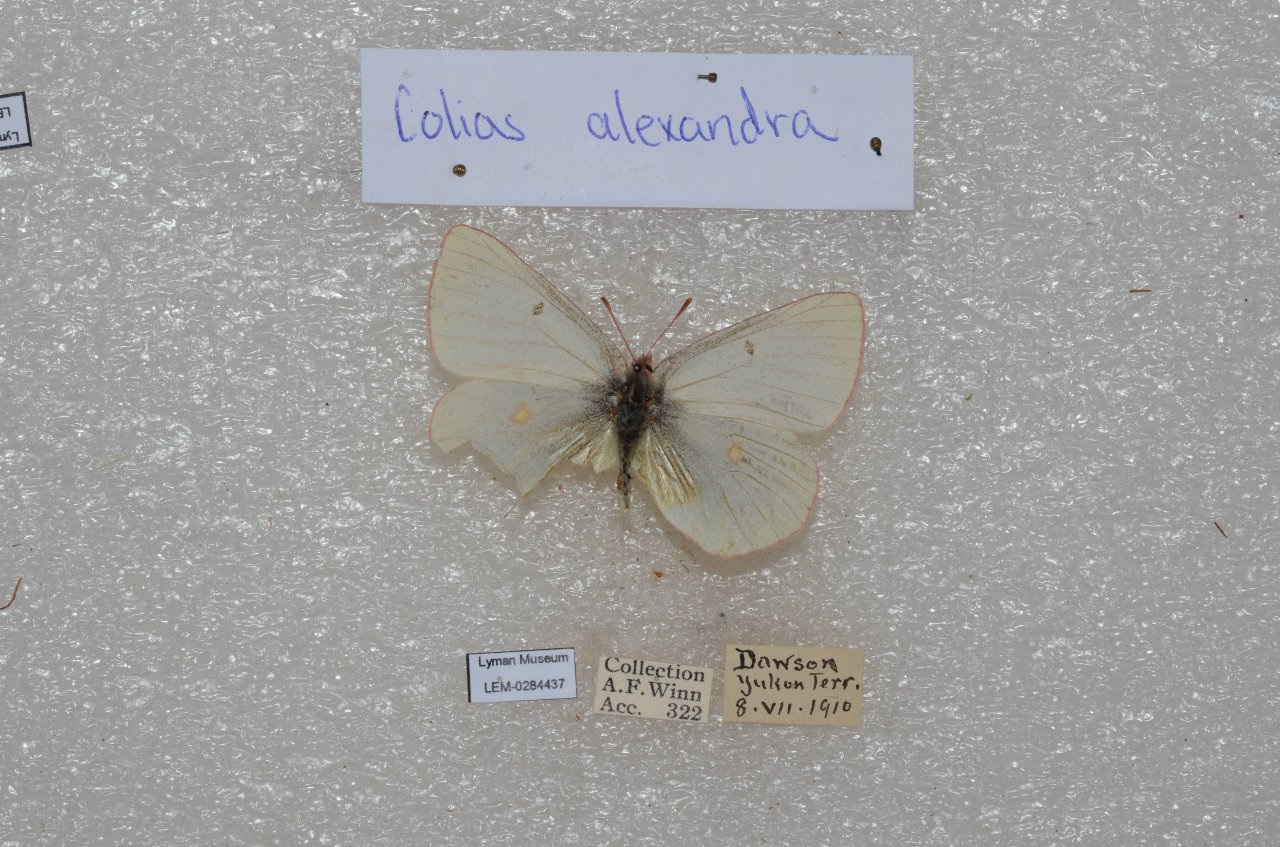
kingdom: Animalia
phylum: Arthropoda
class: Insecta
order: Lepidoptera
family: Pieridae
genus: Colias
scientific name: Colias philodice
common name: Clouded Sulphur
